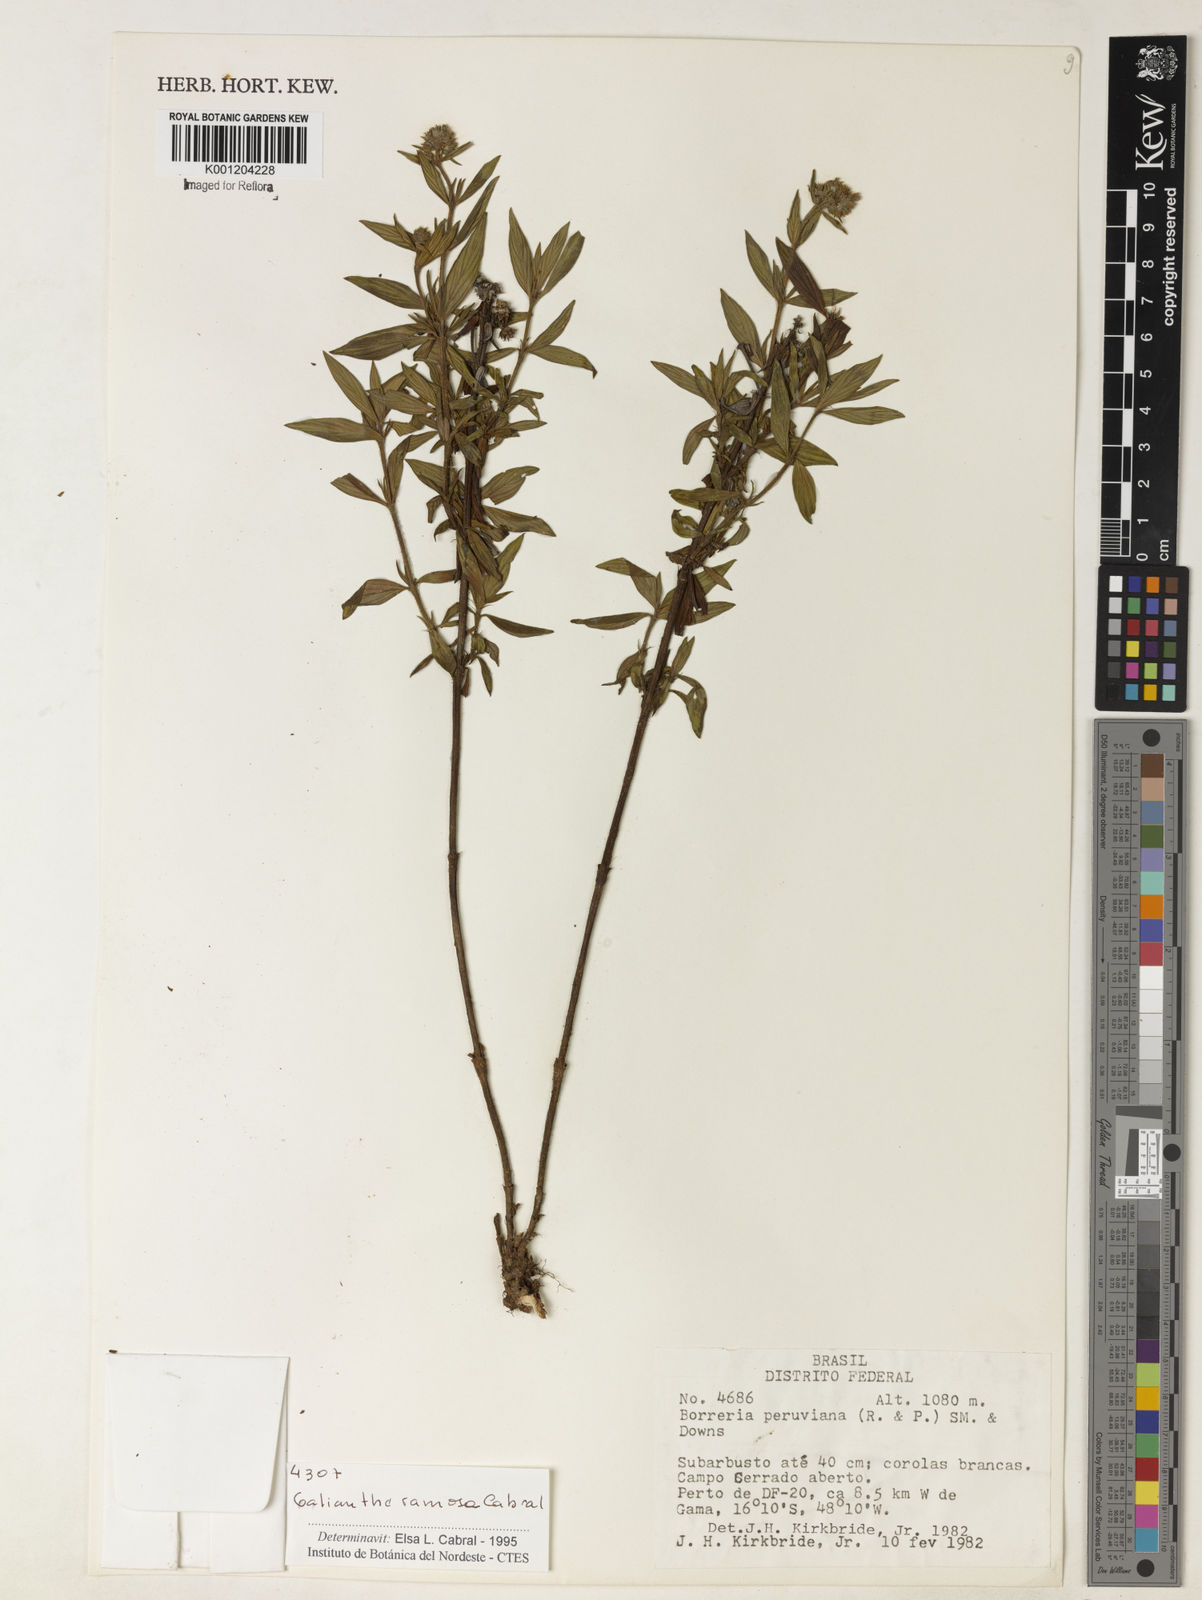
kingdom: Plantae
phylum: Tracheophyta
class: Magnoliopsida
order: Gentianales
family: Rubiaceae
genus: Galianthe
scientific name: Galianthe ramosa
